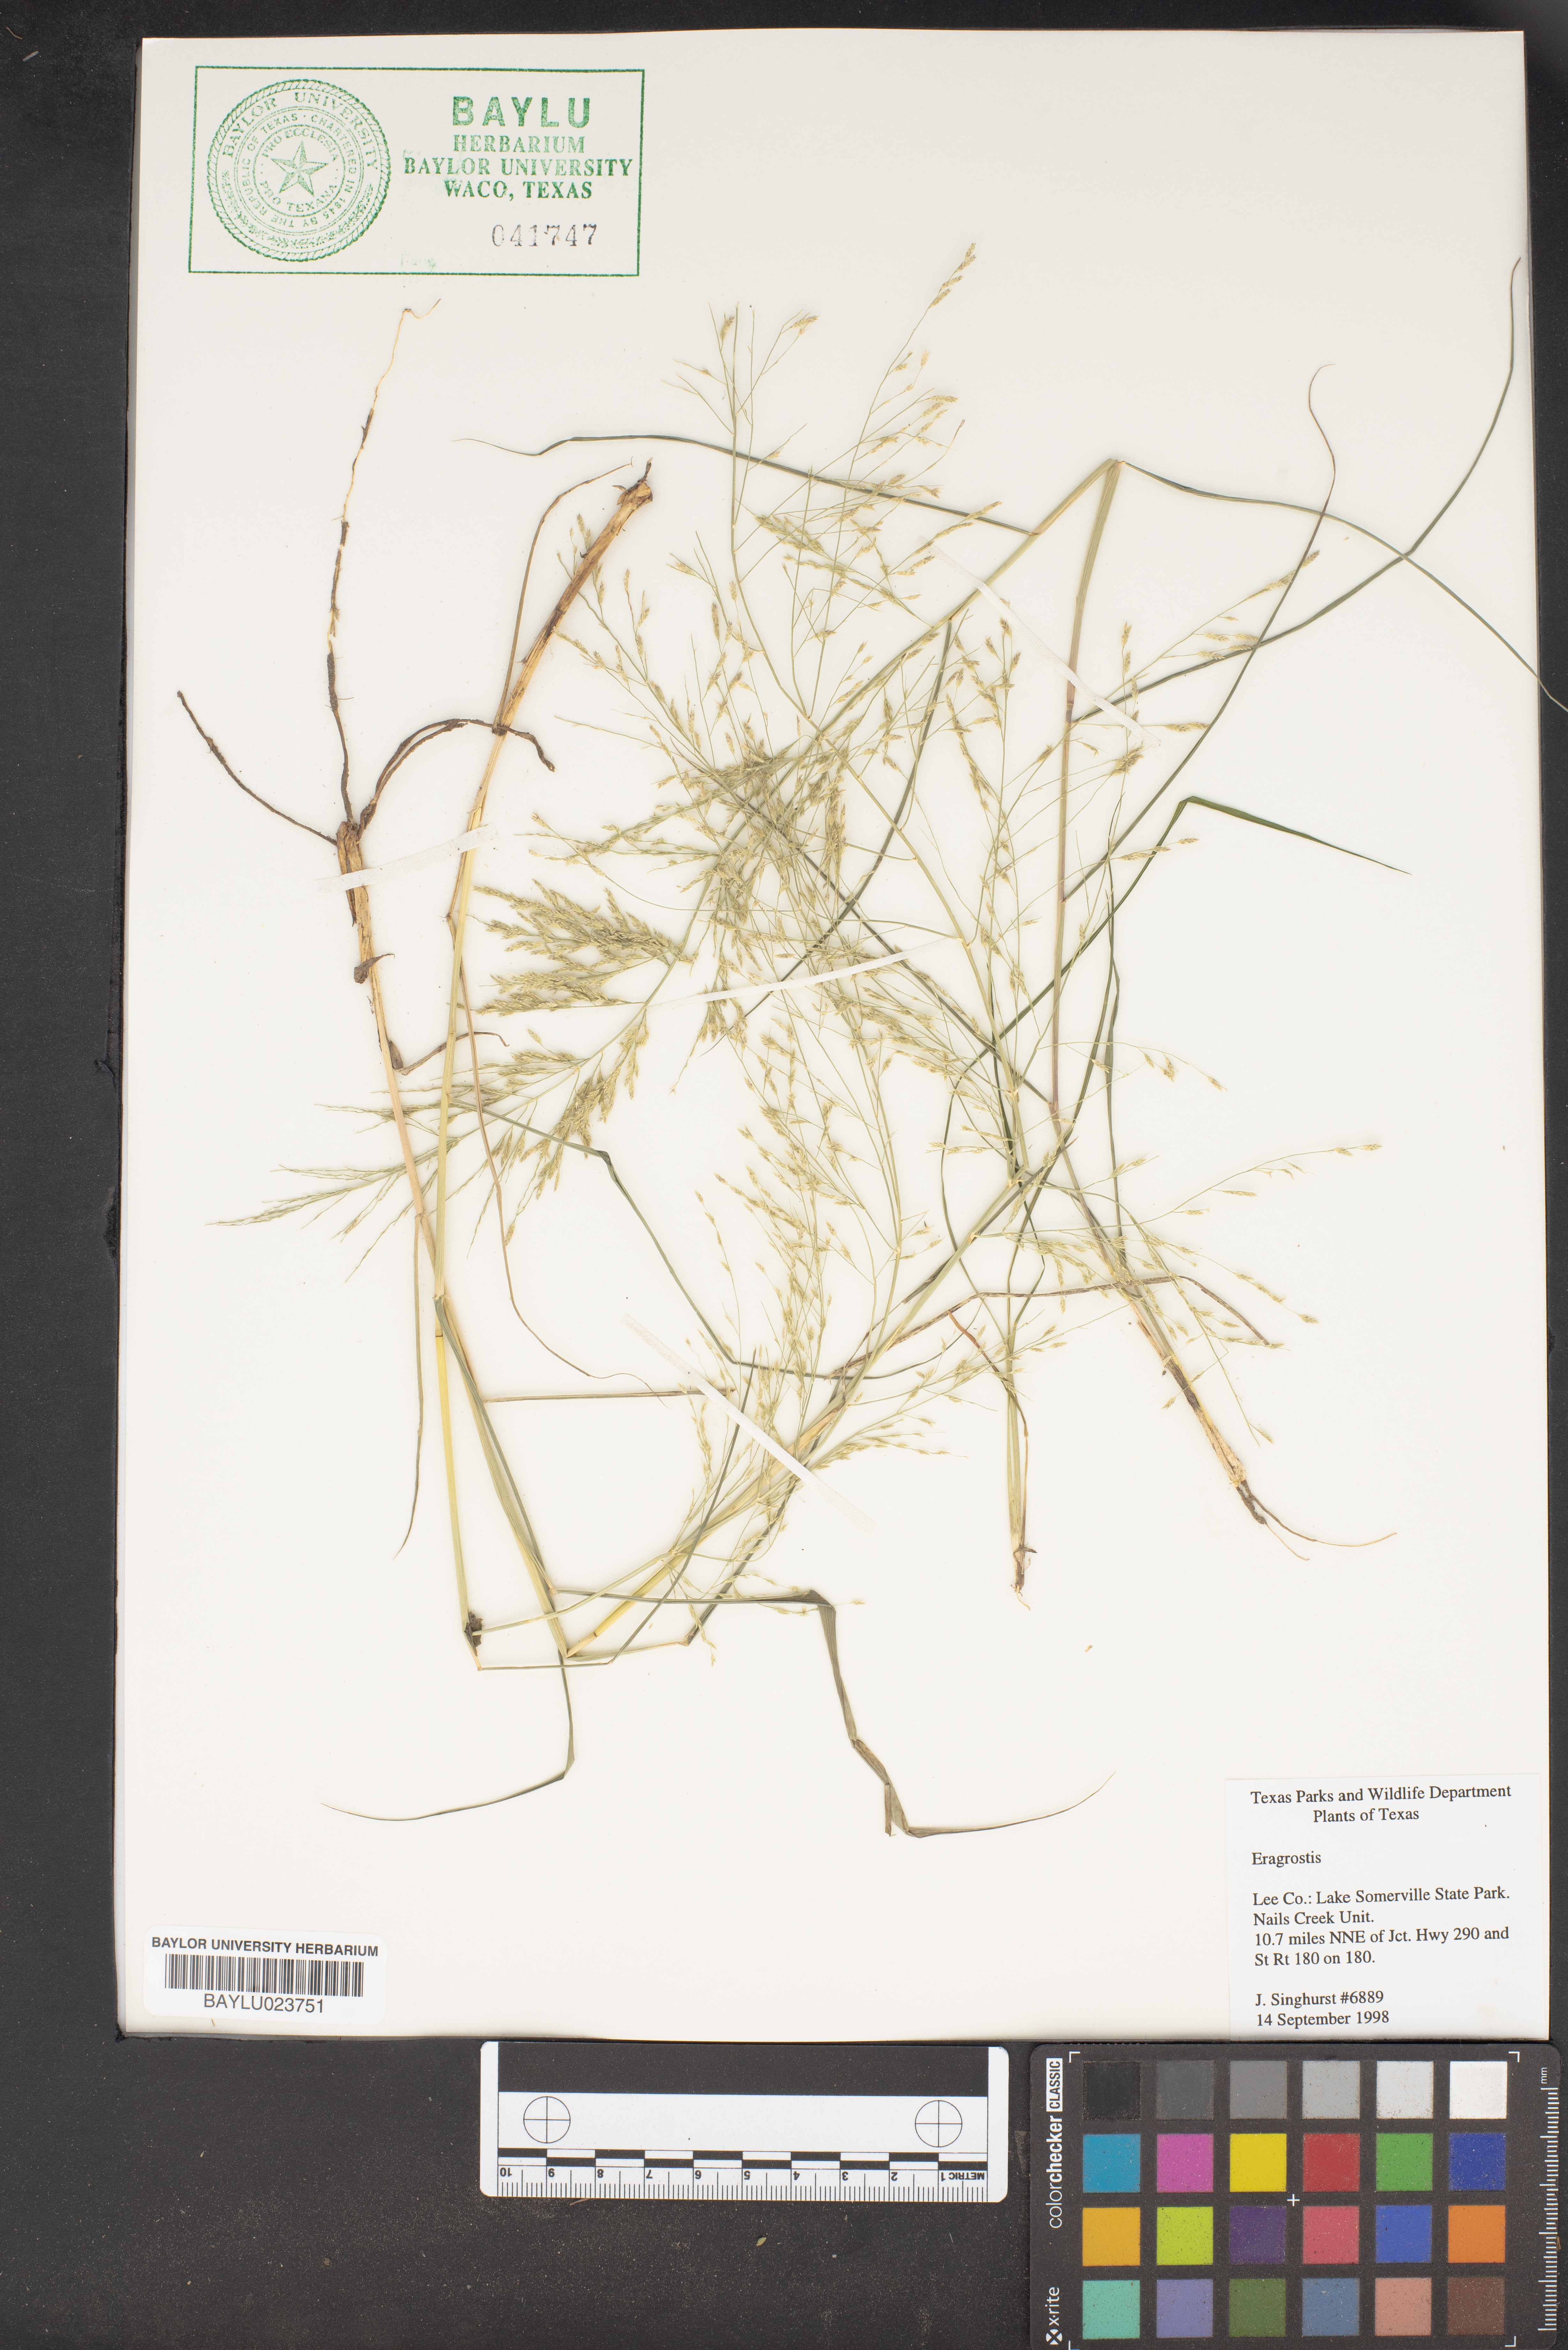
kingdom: Plantae
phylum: Tracheophyta
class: Liliopsida
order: Poales
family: Poaceae
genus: Eragrostis
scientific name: Eragrostis
